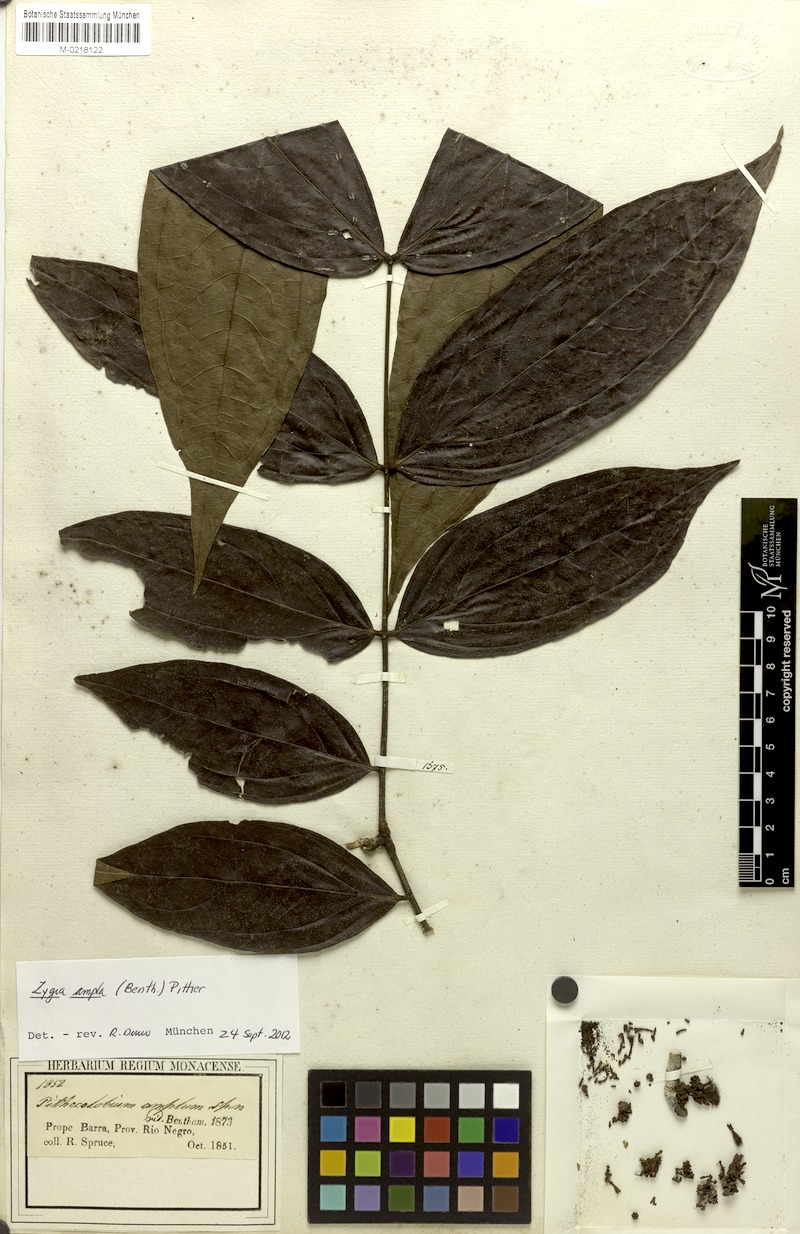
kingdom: Plantae
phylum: Tracheophyta
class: Magnoliopsida
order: Fabales
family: Fabaceae
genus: Zygia
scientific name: Zygia ampla
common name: Jarendeua de sapo
